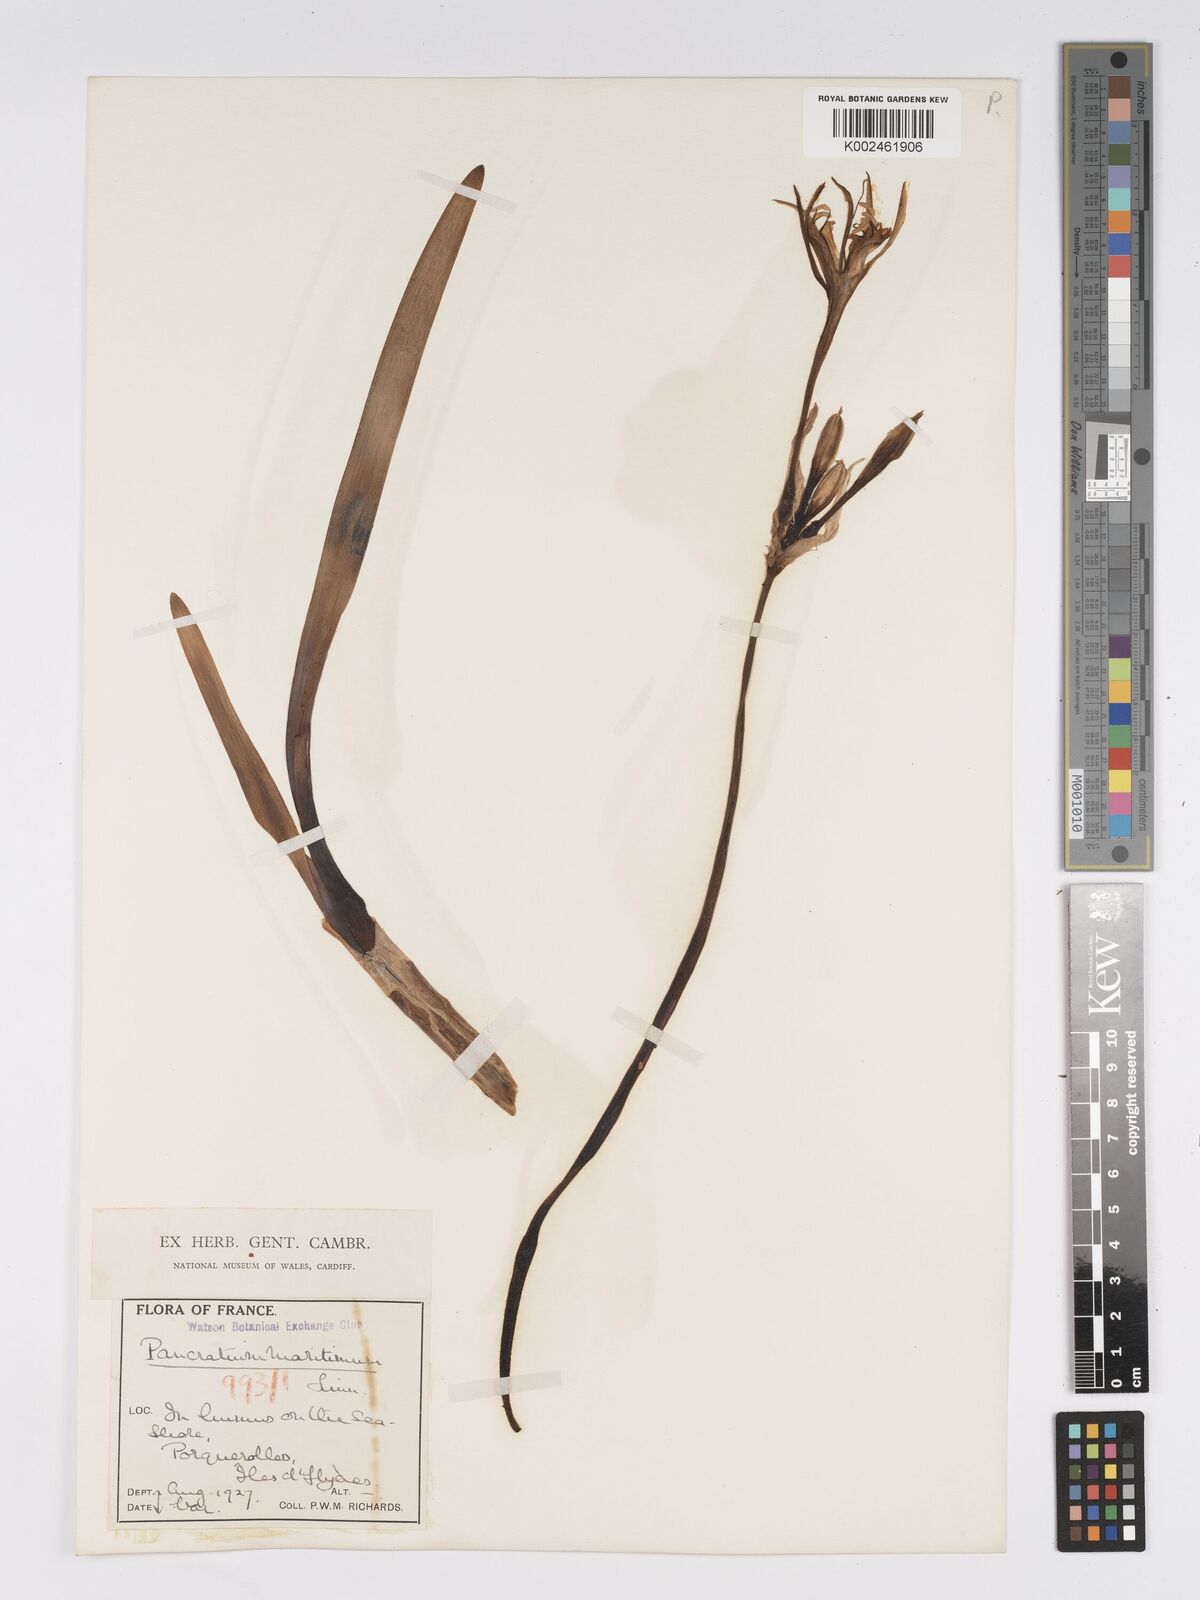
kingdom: Plantae
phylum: Tracheophyta
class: Liliopsida
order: Asparagales
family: Amaryllidaceae
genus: Pancratium
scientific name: Pancratium maritimum
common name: Sea-daffodil
